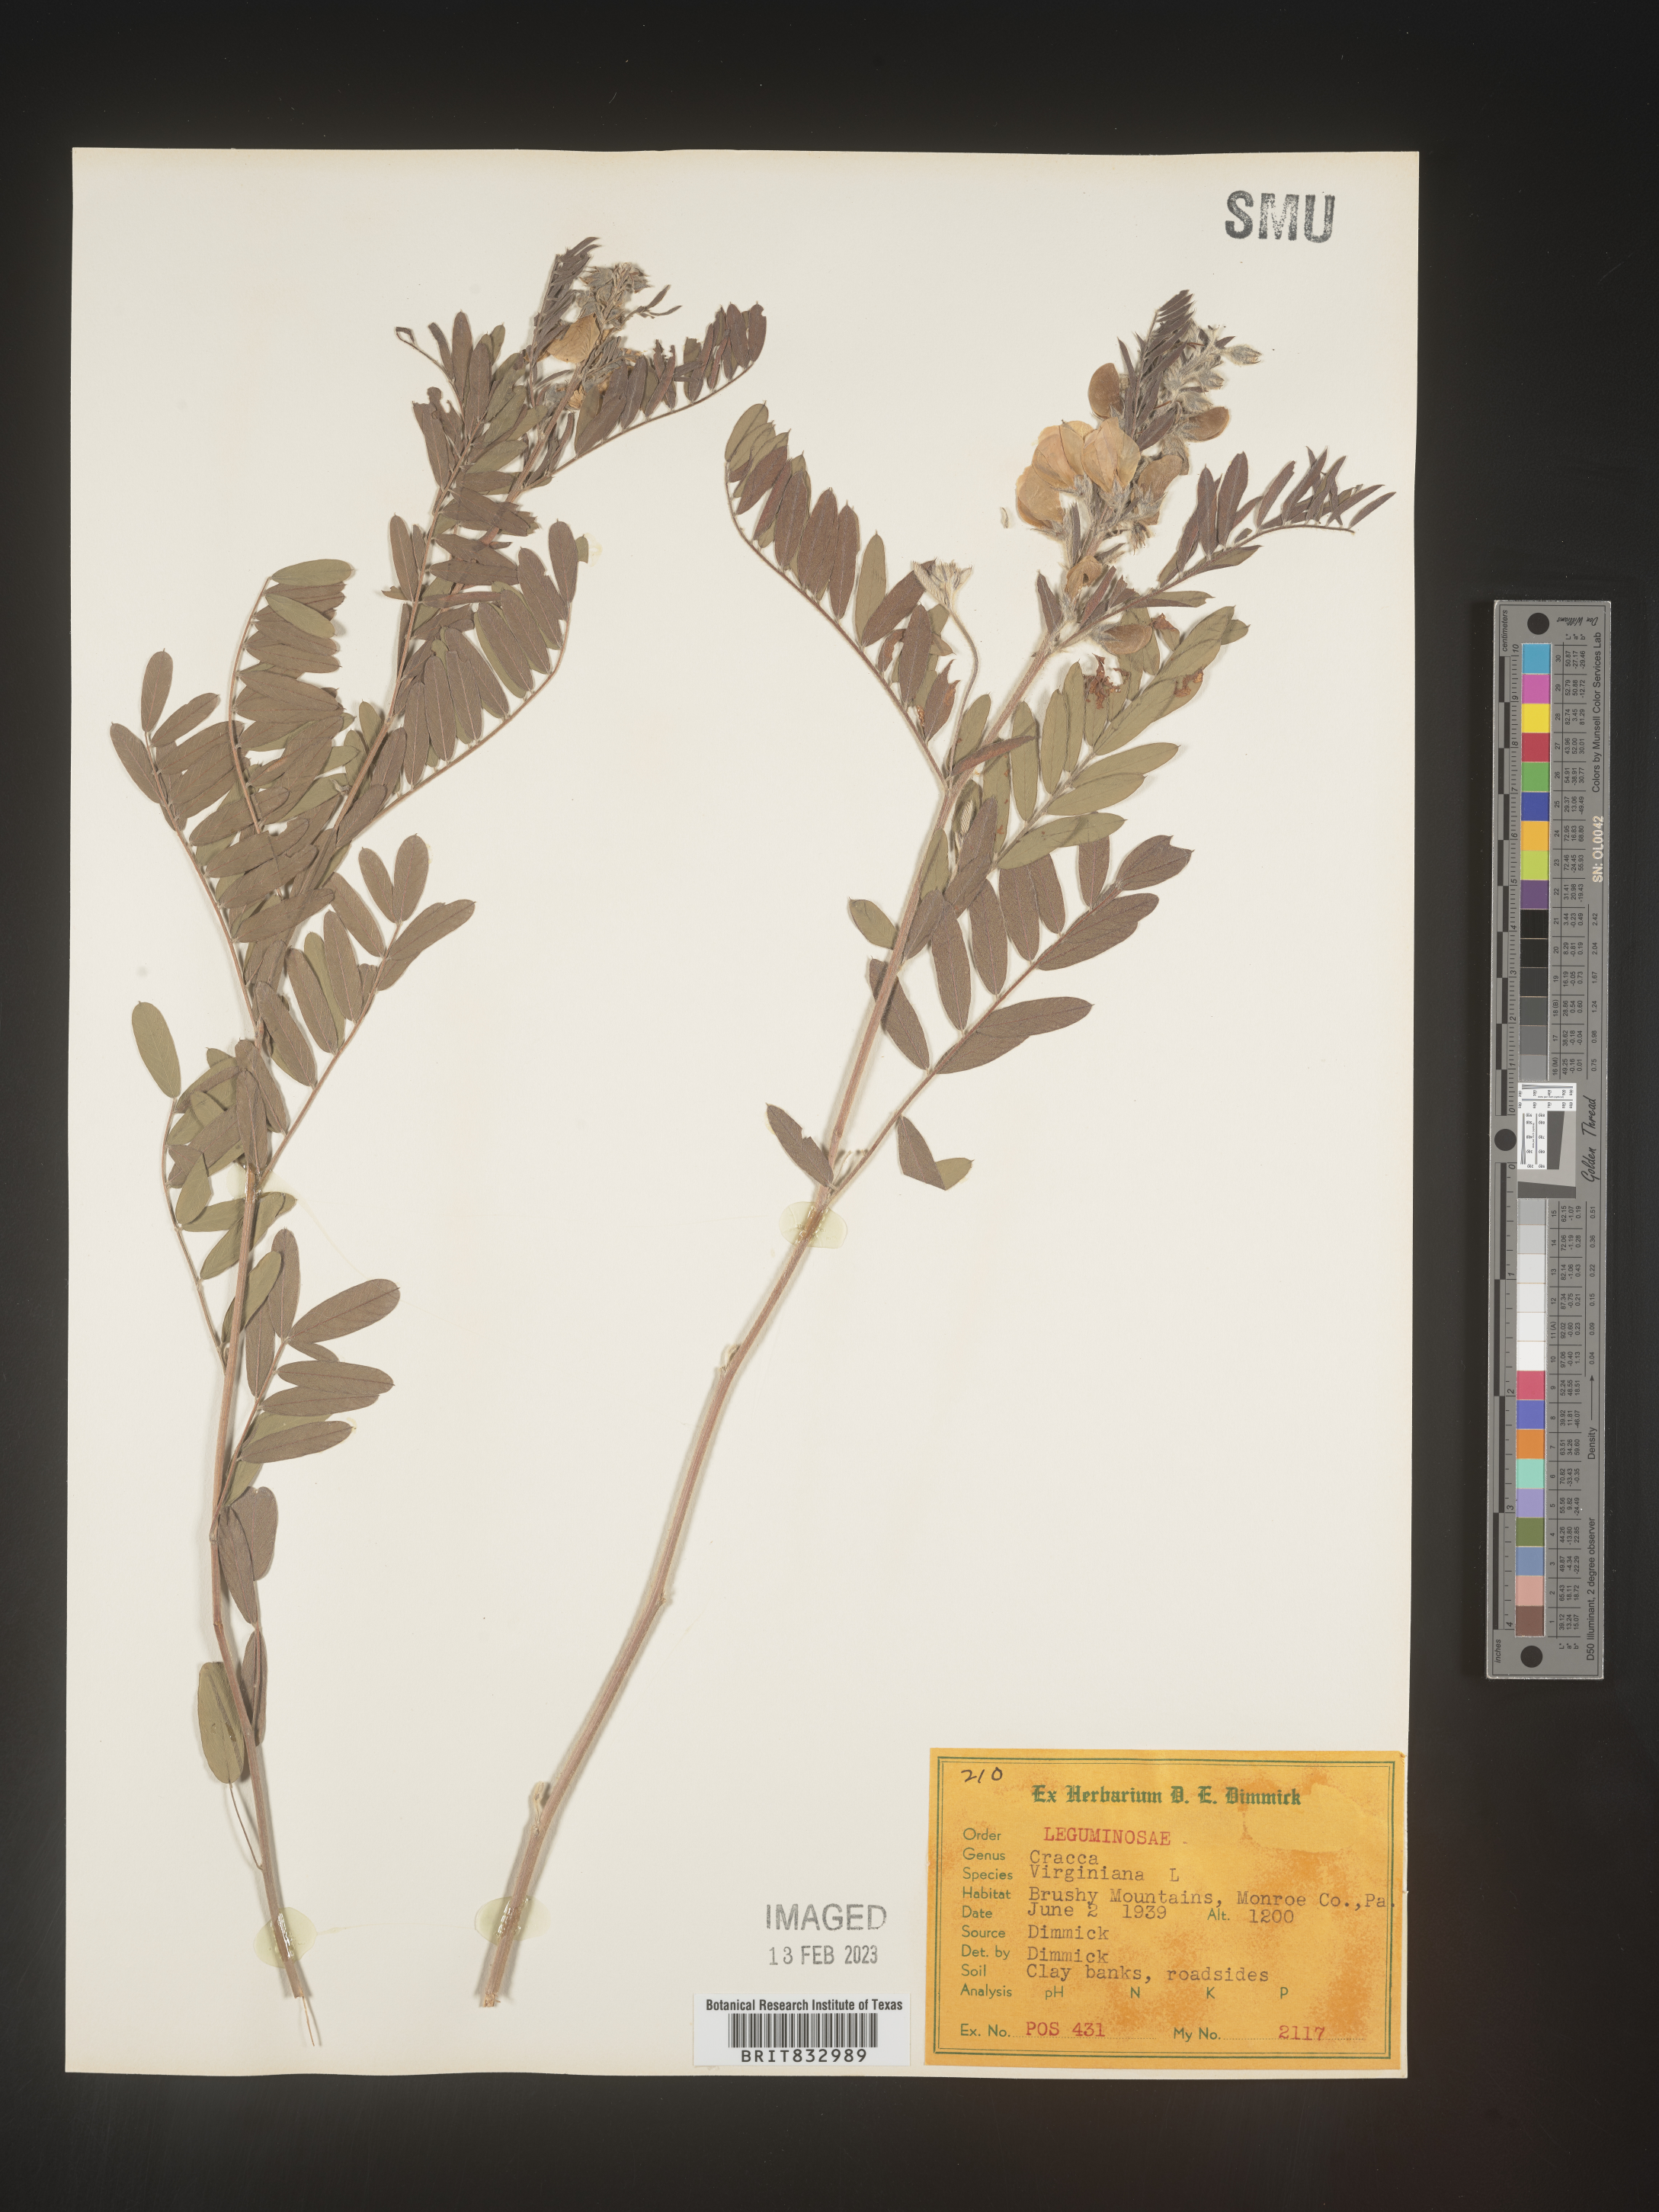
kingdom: Plantae
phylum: Tracheophyta
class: Magnoliopsida
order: Fabales
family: Fabaceae
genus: Tephrosia
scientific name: Tephrosia virginiana
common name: Rabbit-pea
